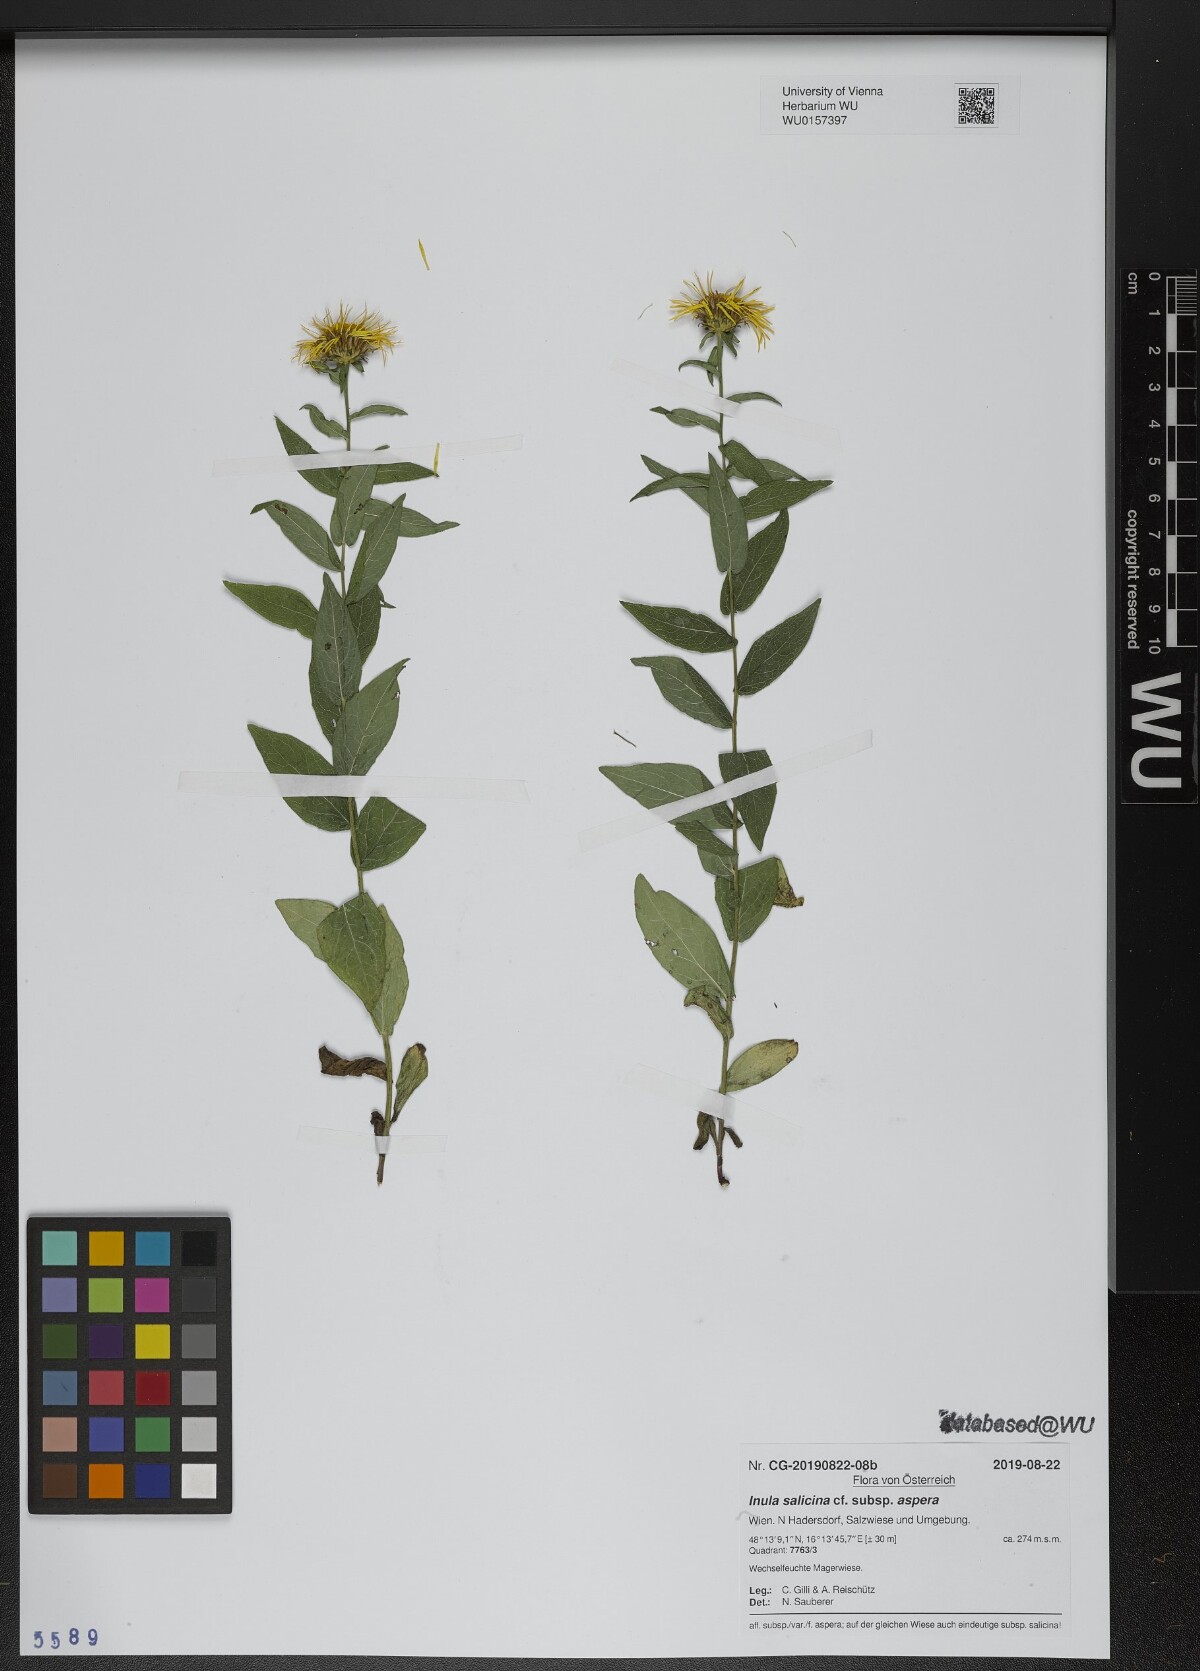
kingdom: Plantae
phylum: Tracheophyta
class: Magnoliopsida
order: Asterales
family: Asteraceae
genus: Pentanema
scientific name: Pentanema asperum
